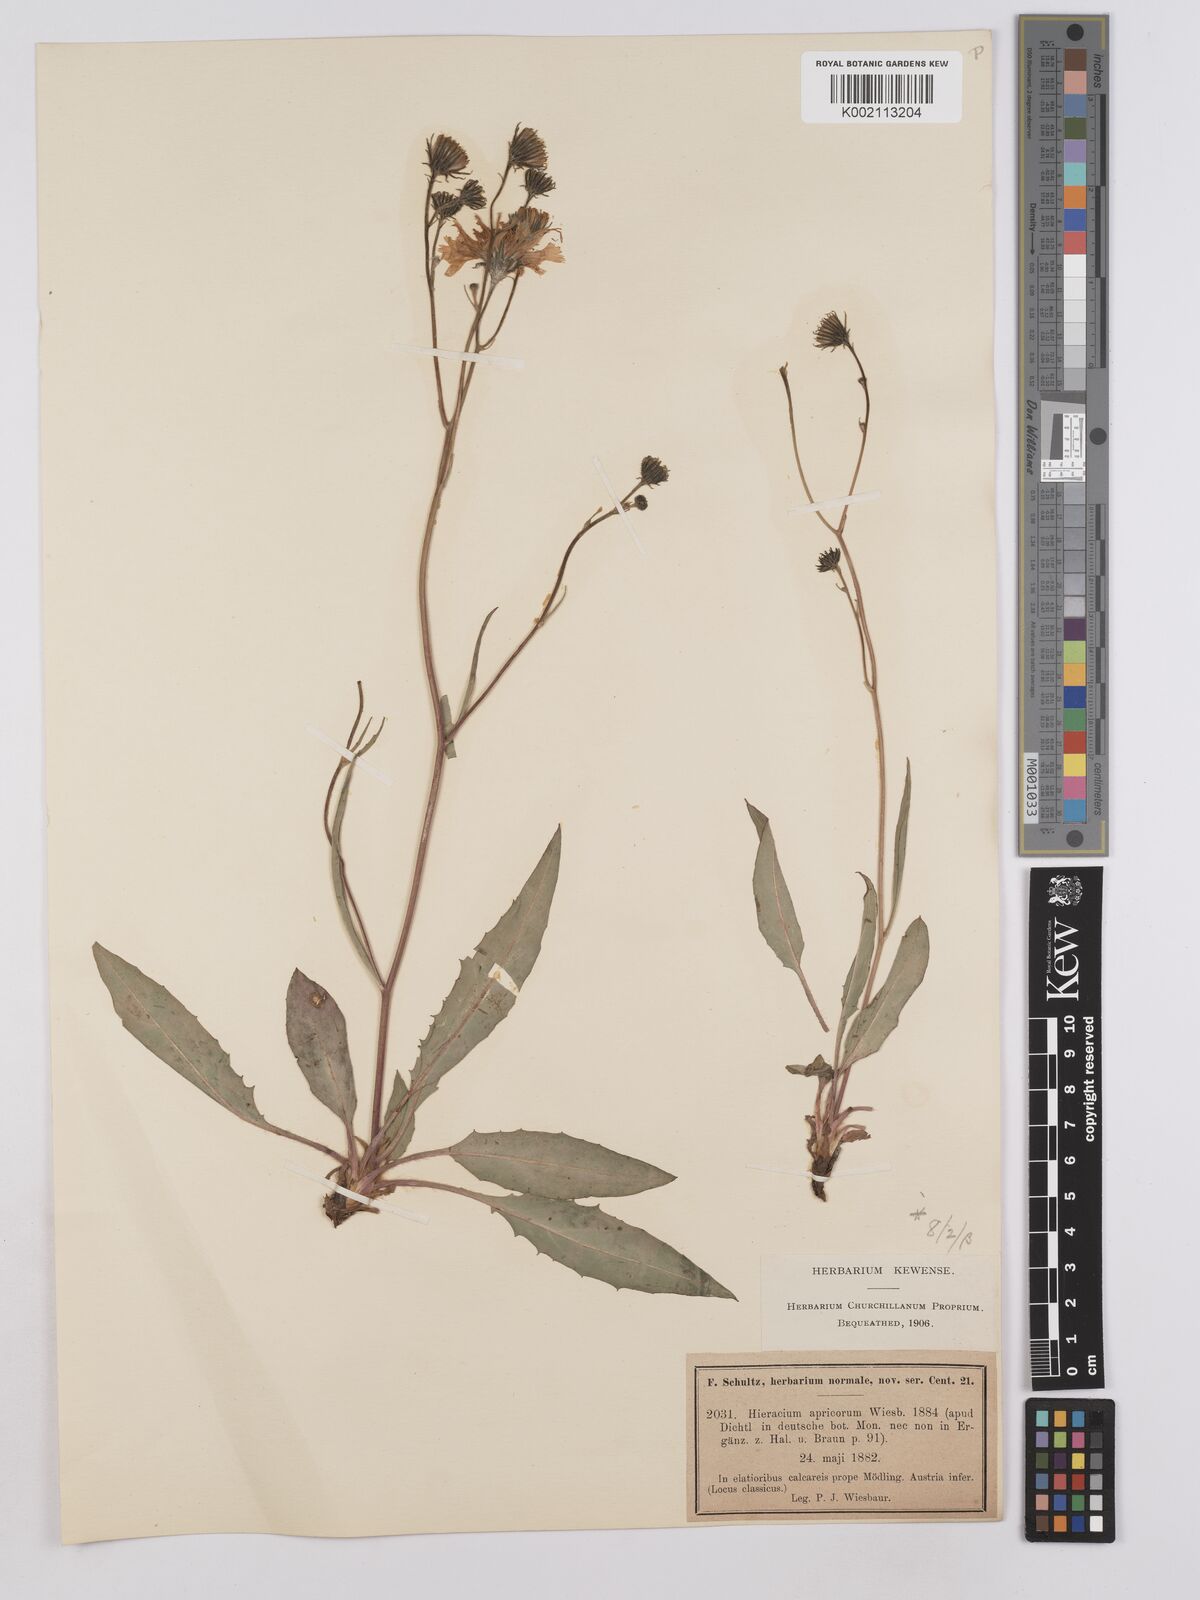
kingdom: Plantae
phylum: Tracheophyta
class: Magnoliopsida
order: Asterales
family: Asteraceae
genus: Crepis
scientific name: Crepis blattarioides
